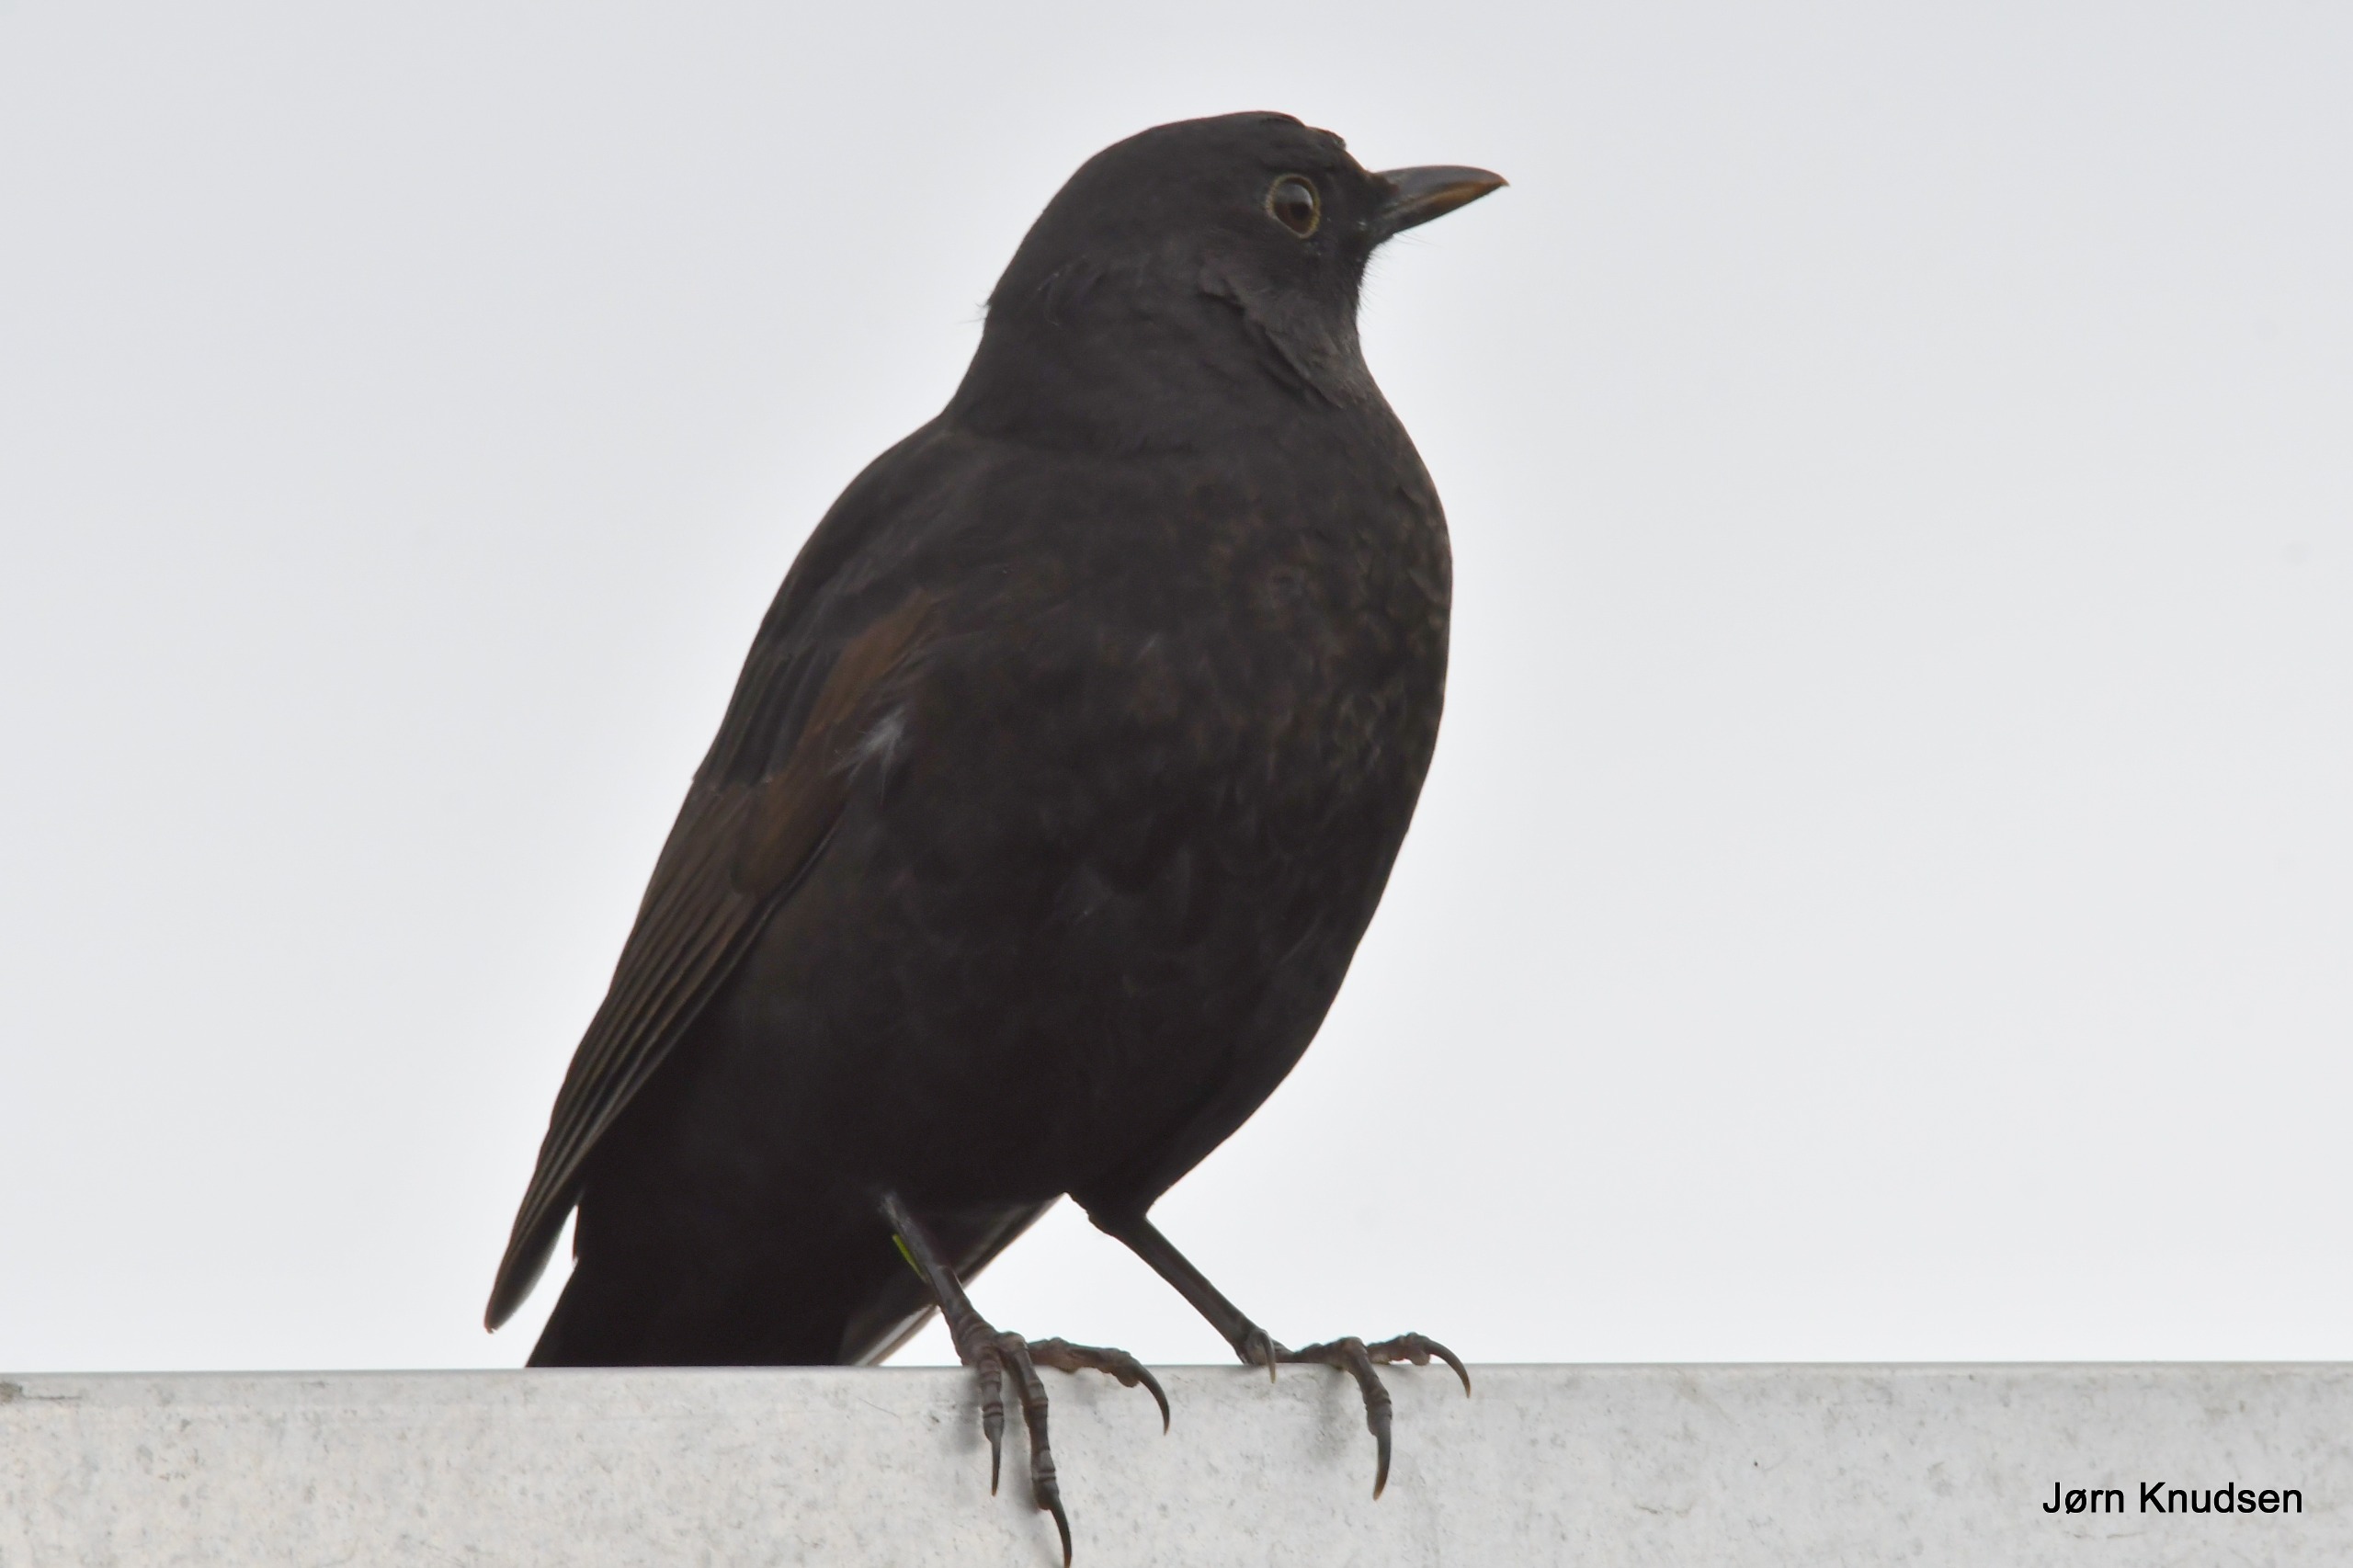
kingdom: Animalia
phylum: Chordata
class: Aves
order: Passeriformes
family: Turdidae
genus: Turdus
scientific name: Turdus merula
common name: Solsort
